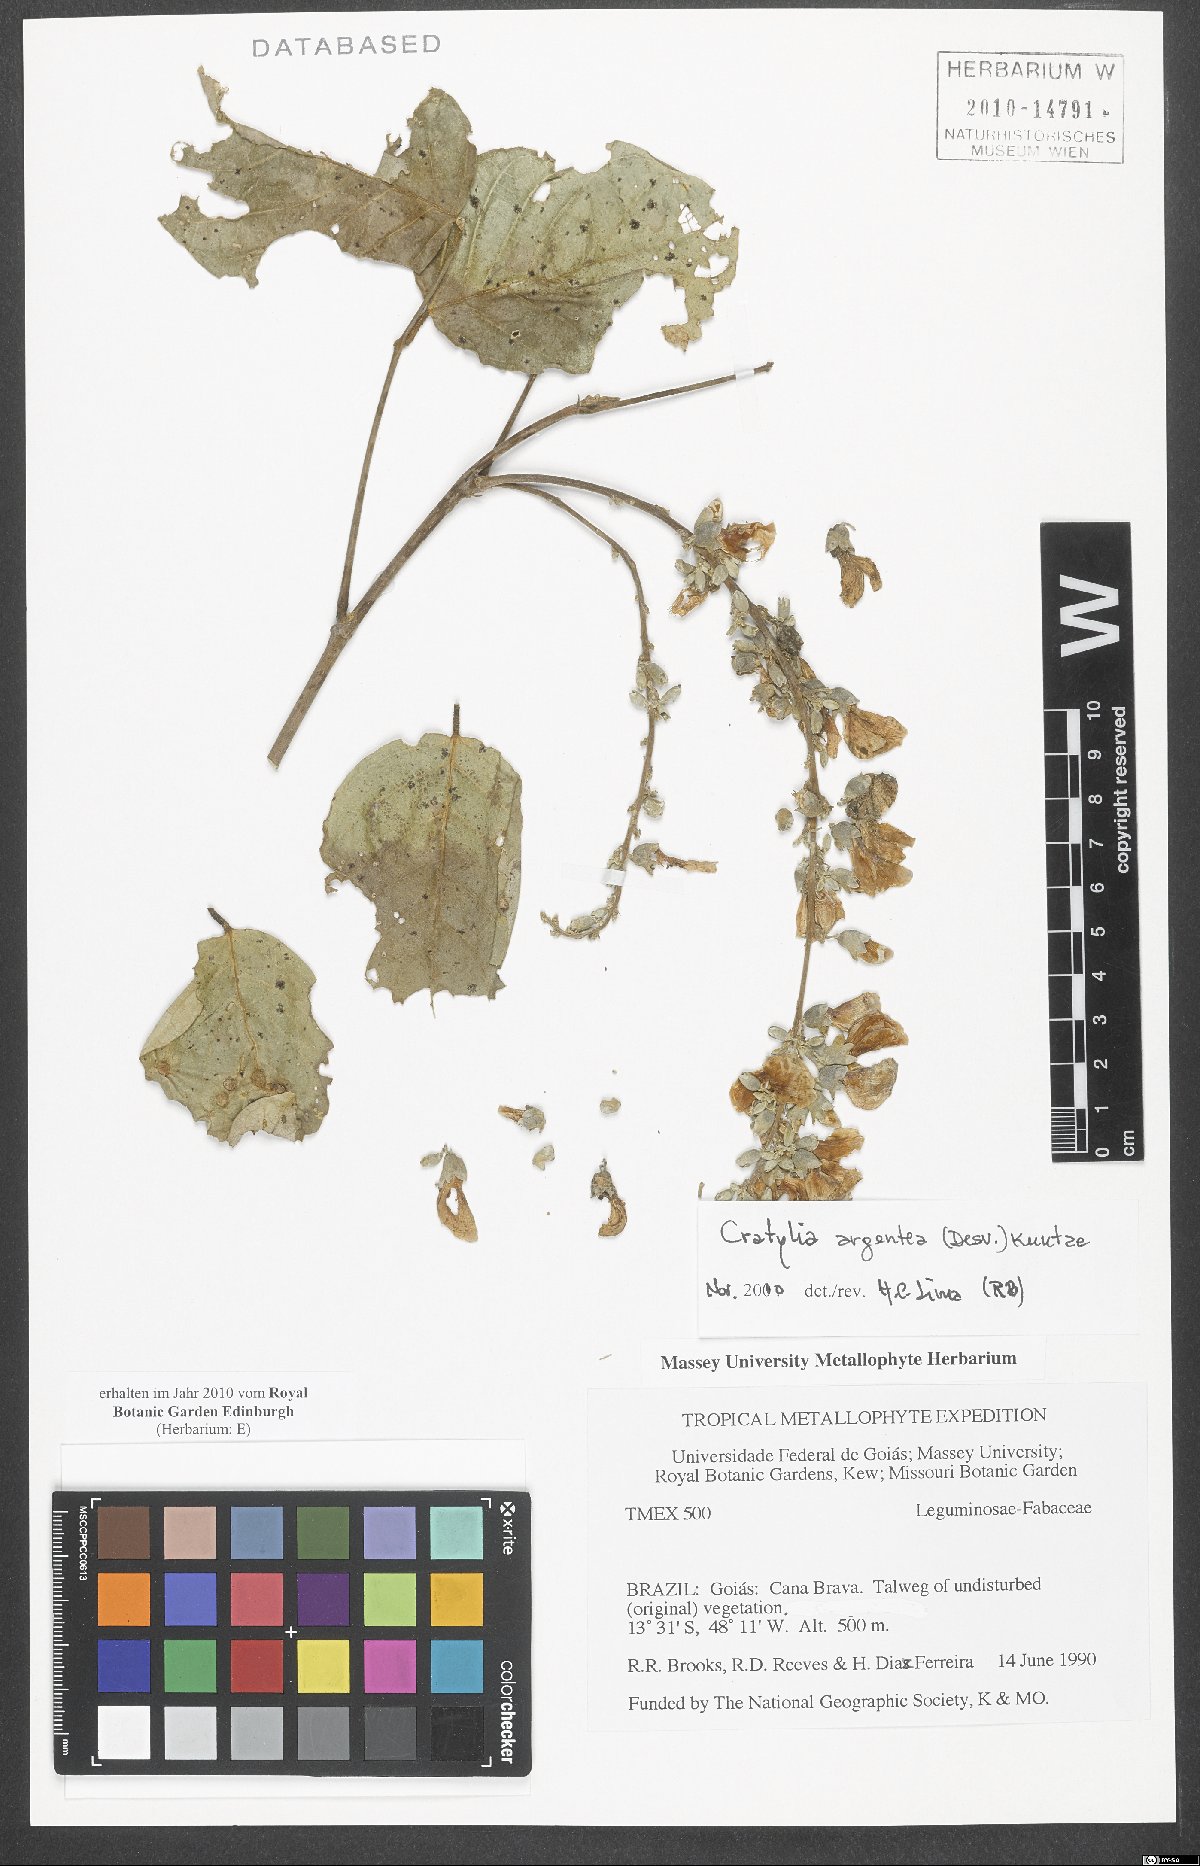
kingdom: Plantae
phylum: Tracheophyta
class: Magnoliopsida
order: Fabales
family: Fabaceae
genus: Cratylia
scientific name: Cratylia argentea
